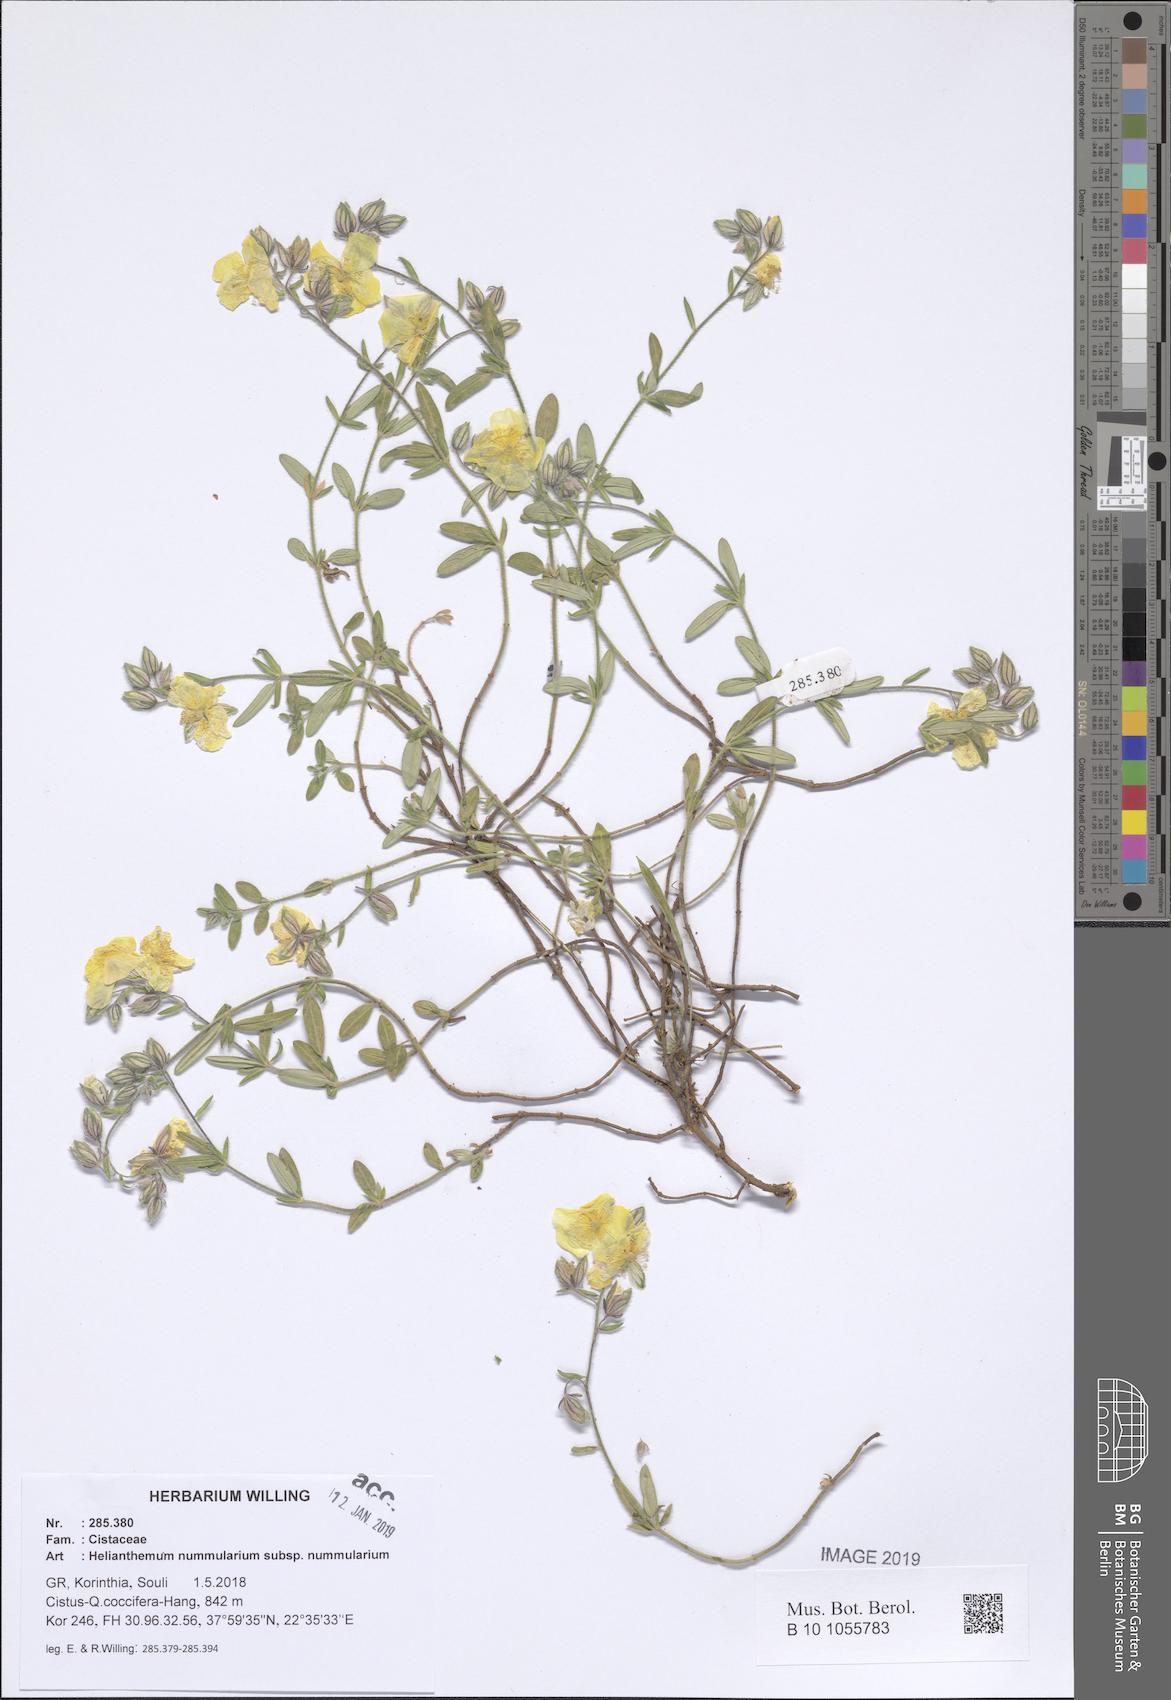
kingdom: Plantae
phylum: Tracheophyta
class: Magnoliopsida
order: Malvales
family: Cistaceae
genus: Helianthemum
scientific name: Helianthemum nummularium
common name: Common rock-rose
